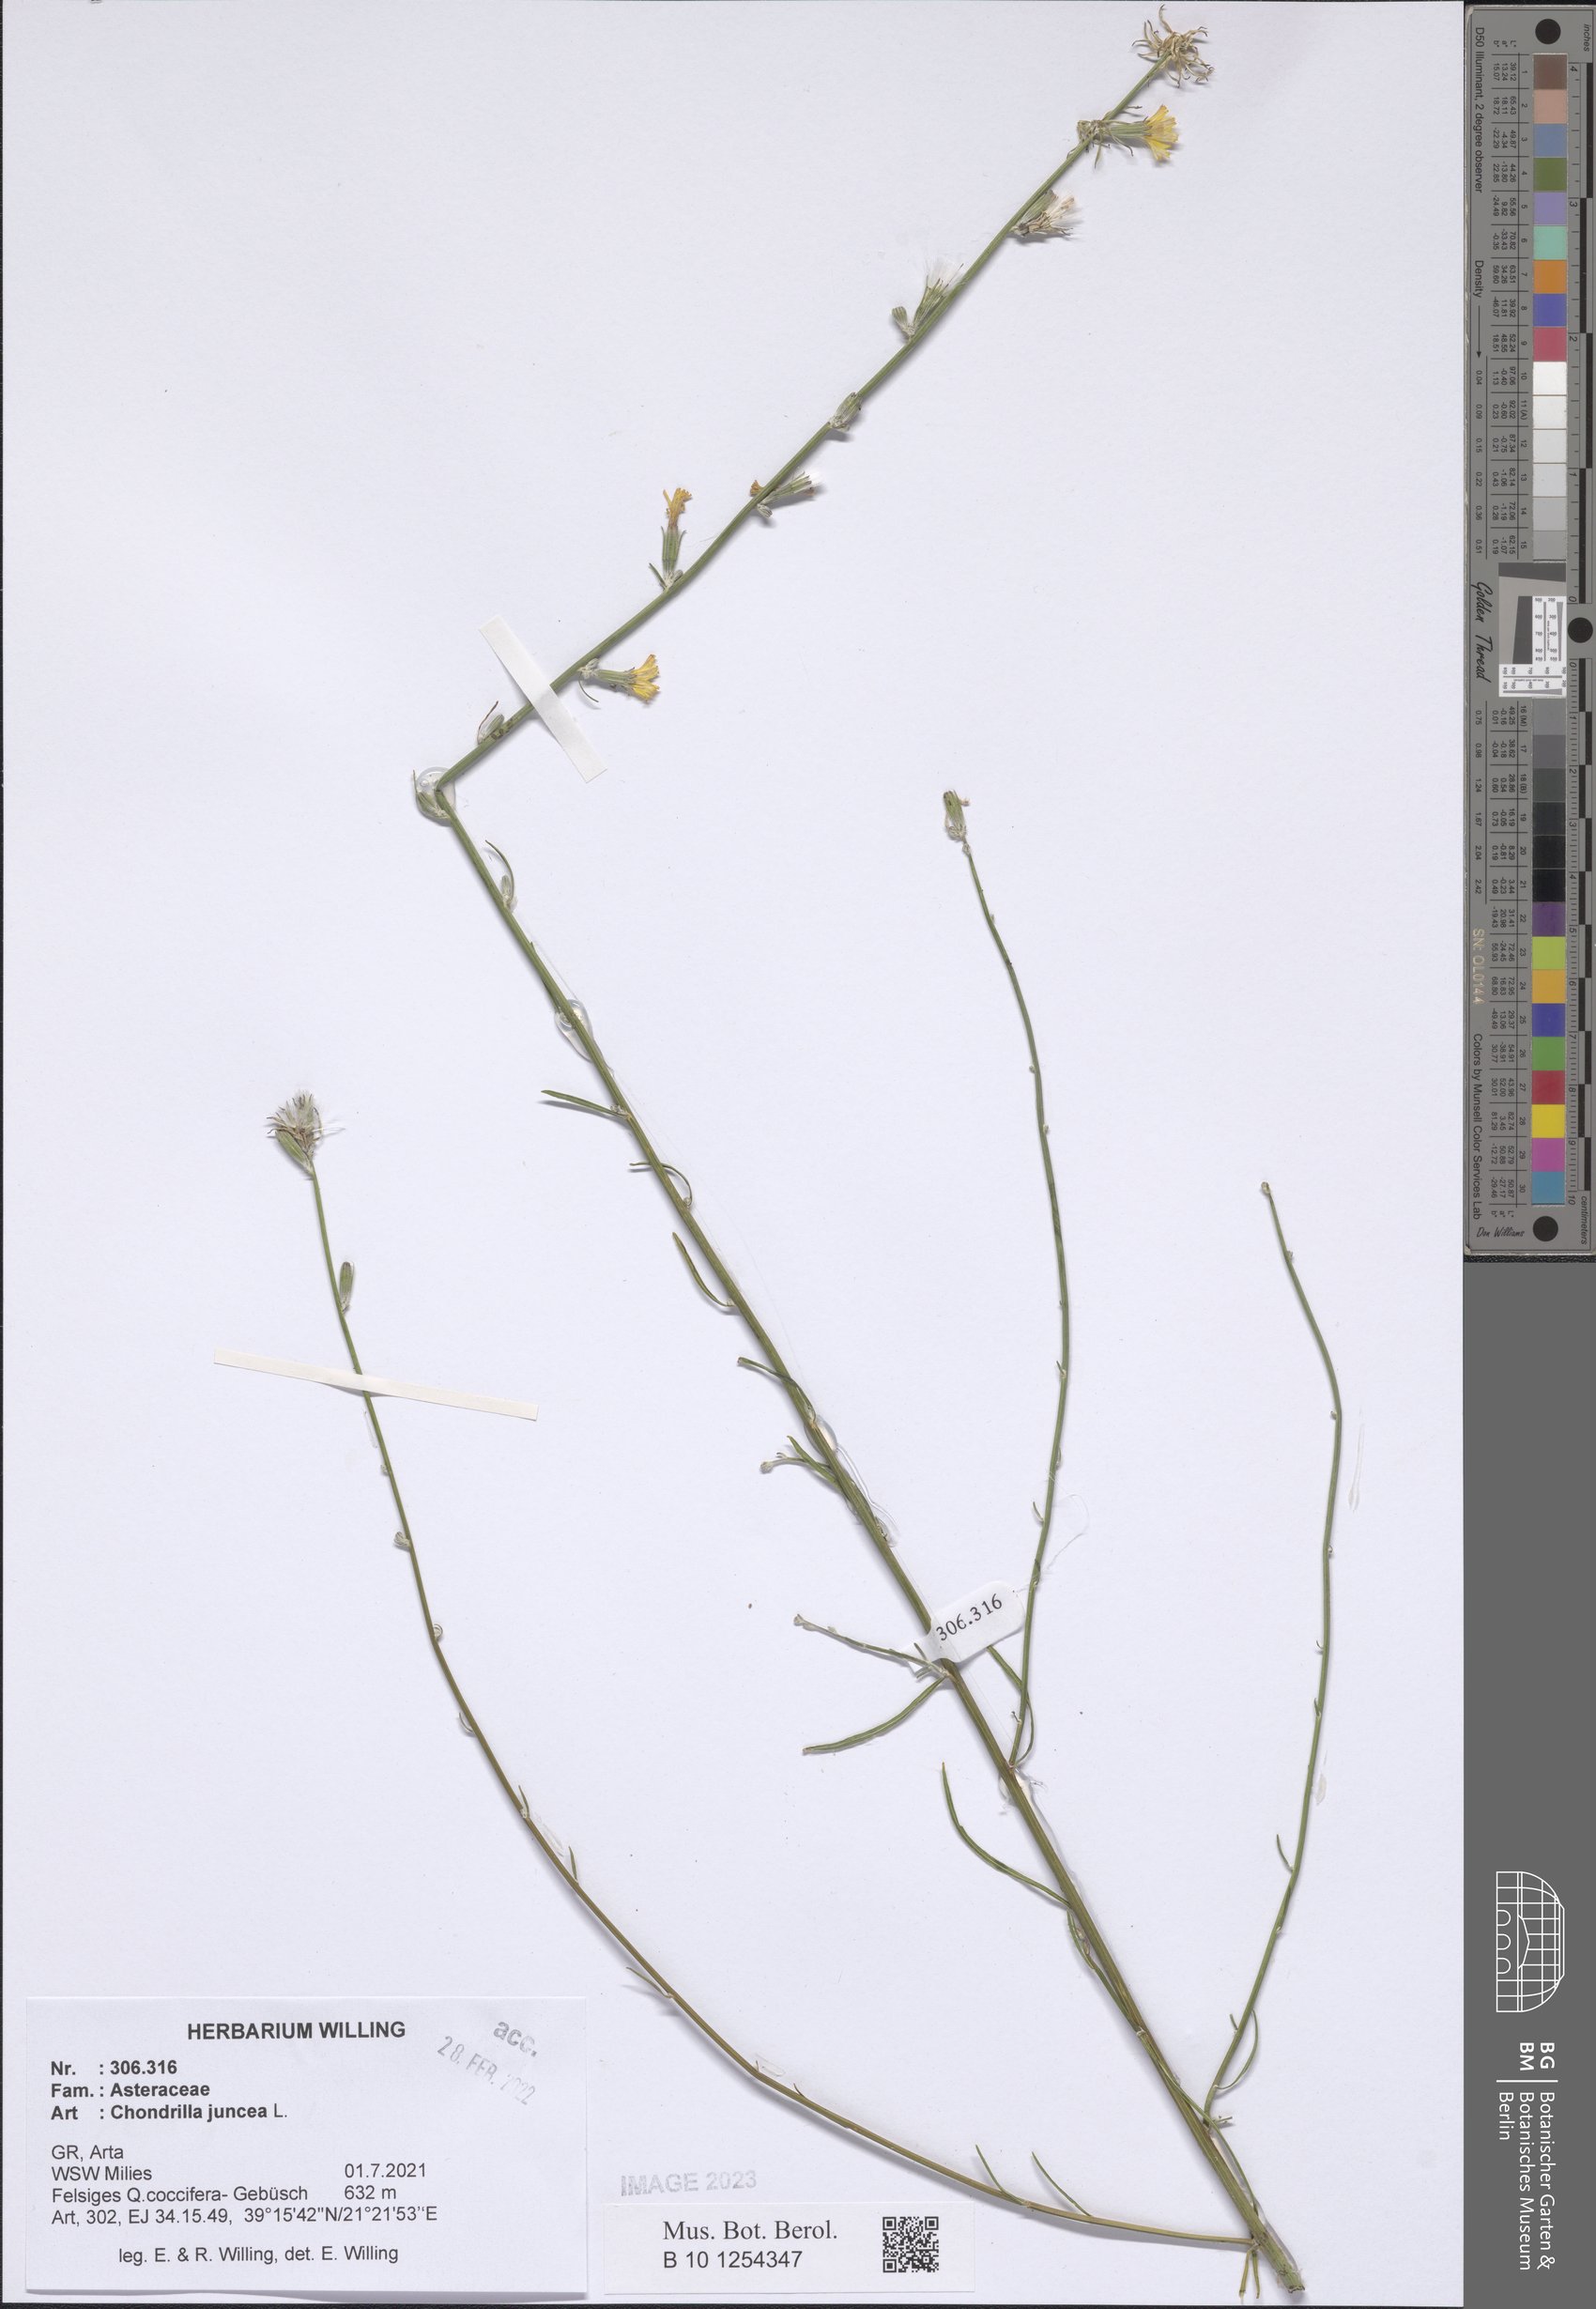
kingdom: Plantae
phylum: Tracheophyta
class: Magnoliopsida
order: Asterales
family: Asteraceae
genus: Chondrilla
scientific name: Chondrilla juncea
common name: Skeleton weed
